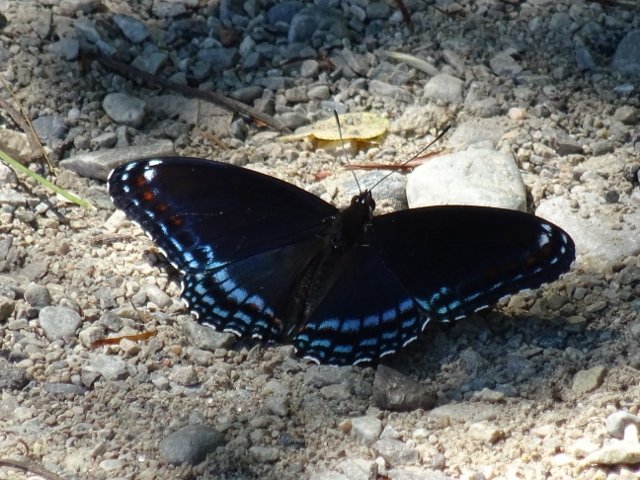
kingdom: Animalia
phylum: Arthropoda
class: Insecta
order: Lepidoptera
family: Nymphalidae
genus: Limenitis
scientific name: Limenitis astyanax
